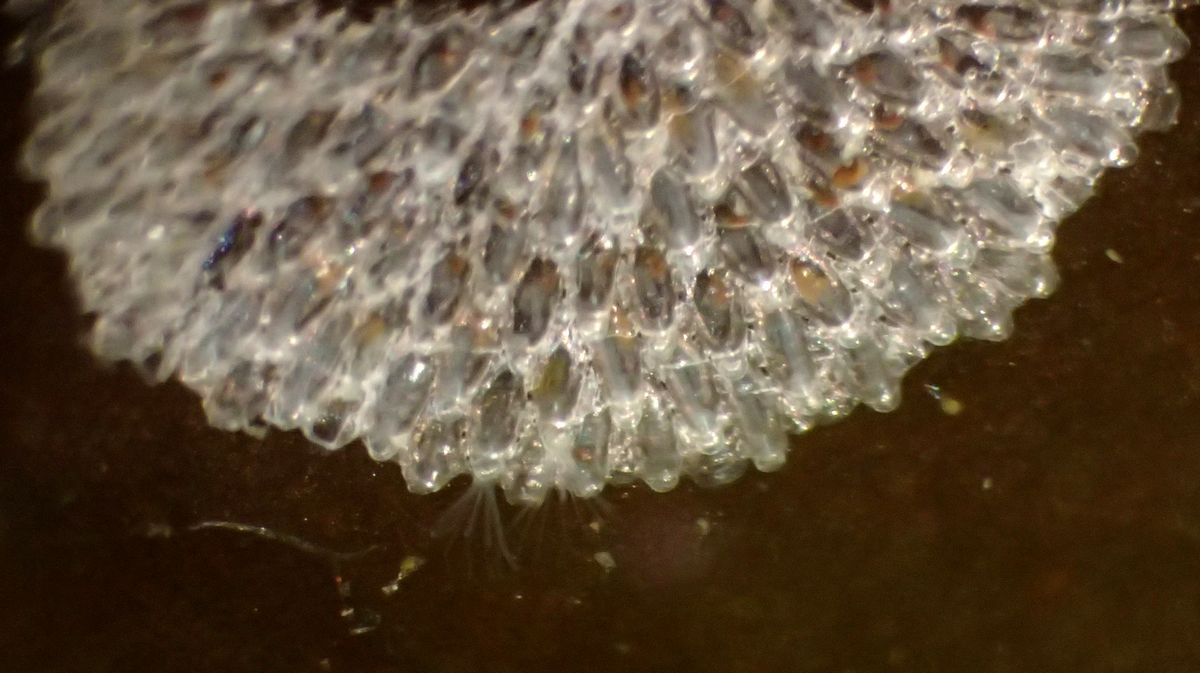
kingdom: Animalia
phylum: Bryozoa
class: Gymnolaemata
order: Cheilostomatida
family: Hippothoidae
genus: Celleporella
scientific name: Celleporella hyalina
